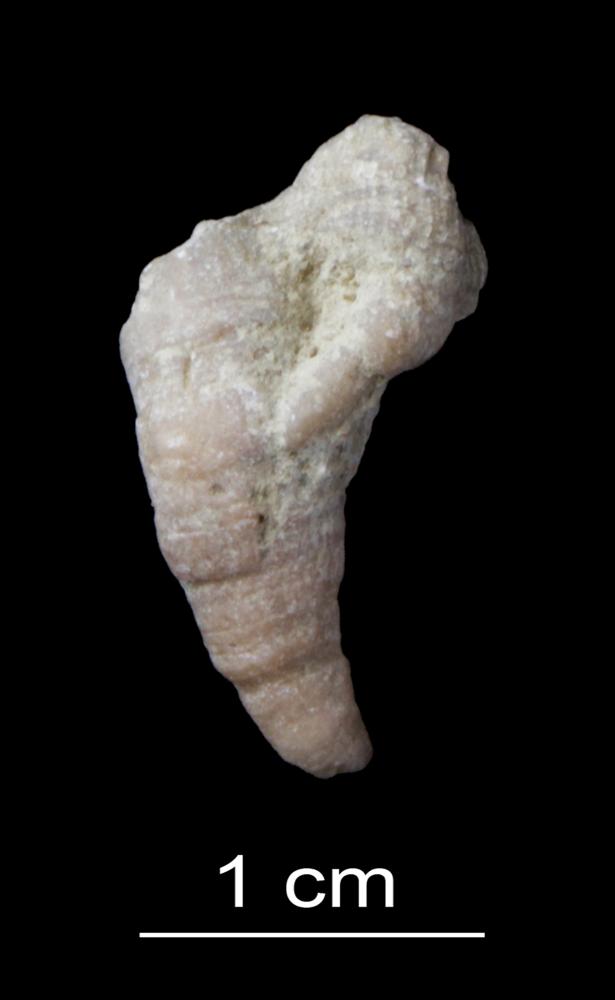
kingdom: Animalia
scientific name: Animalia
